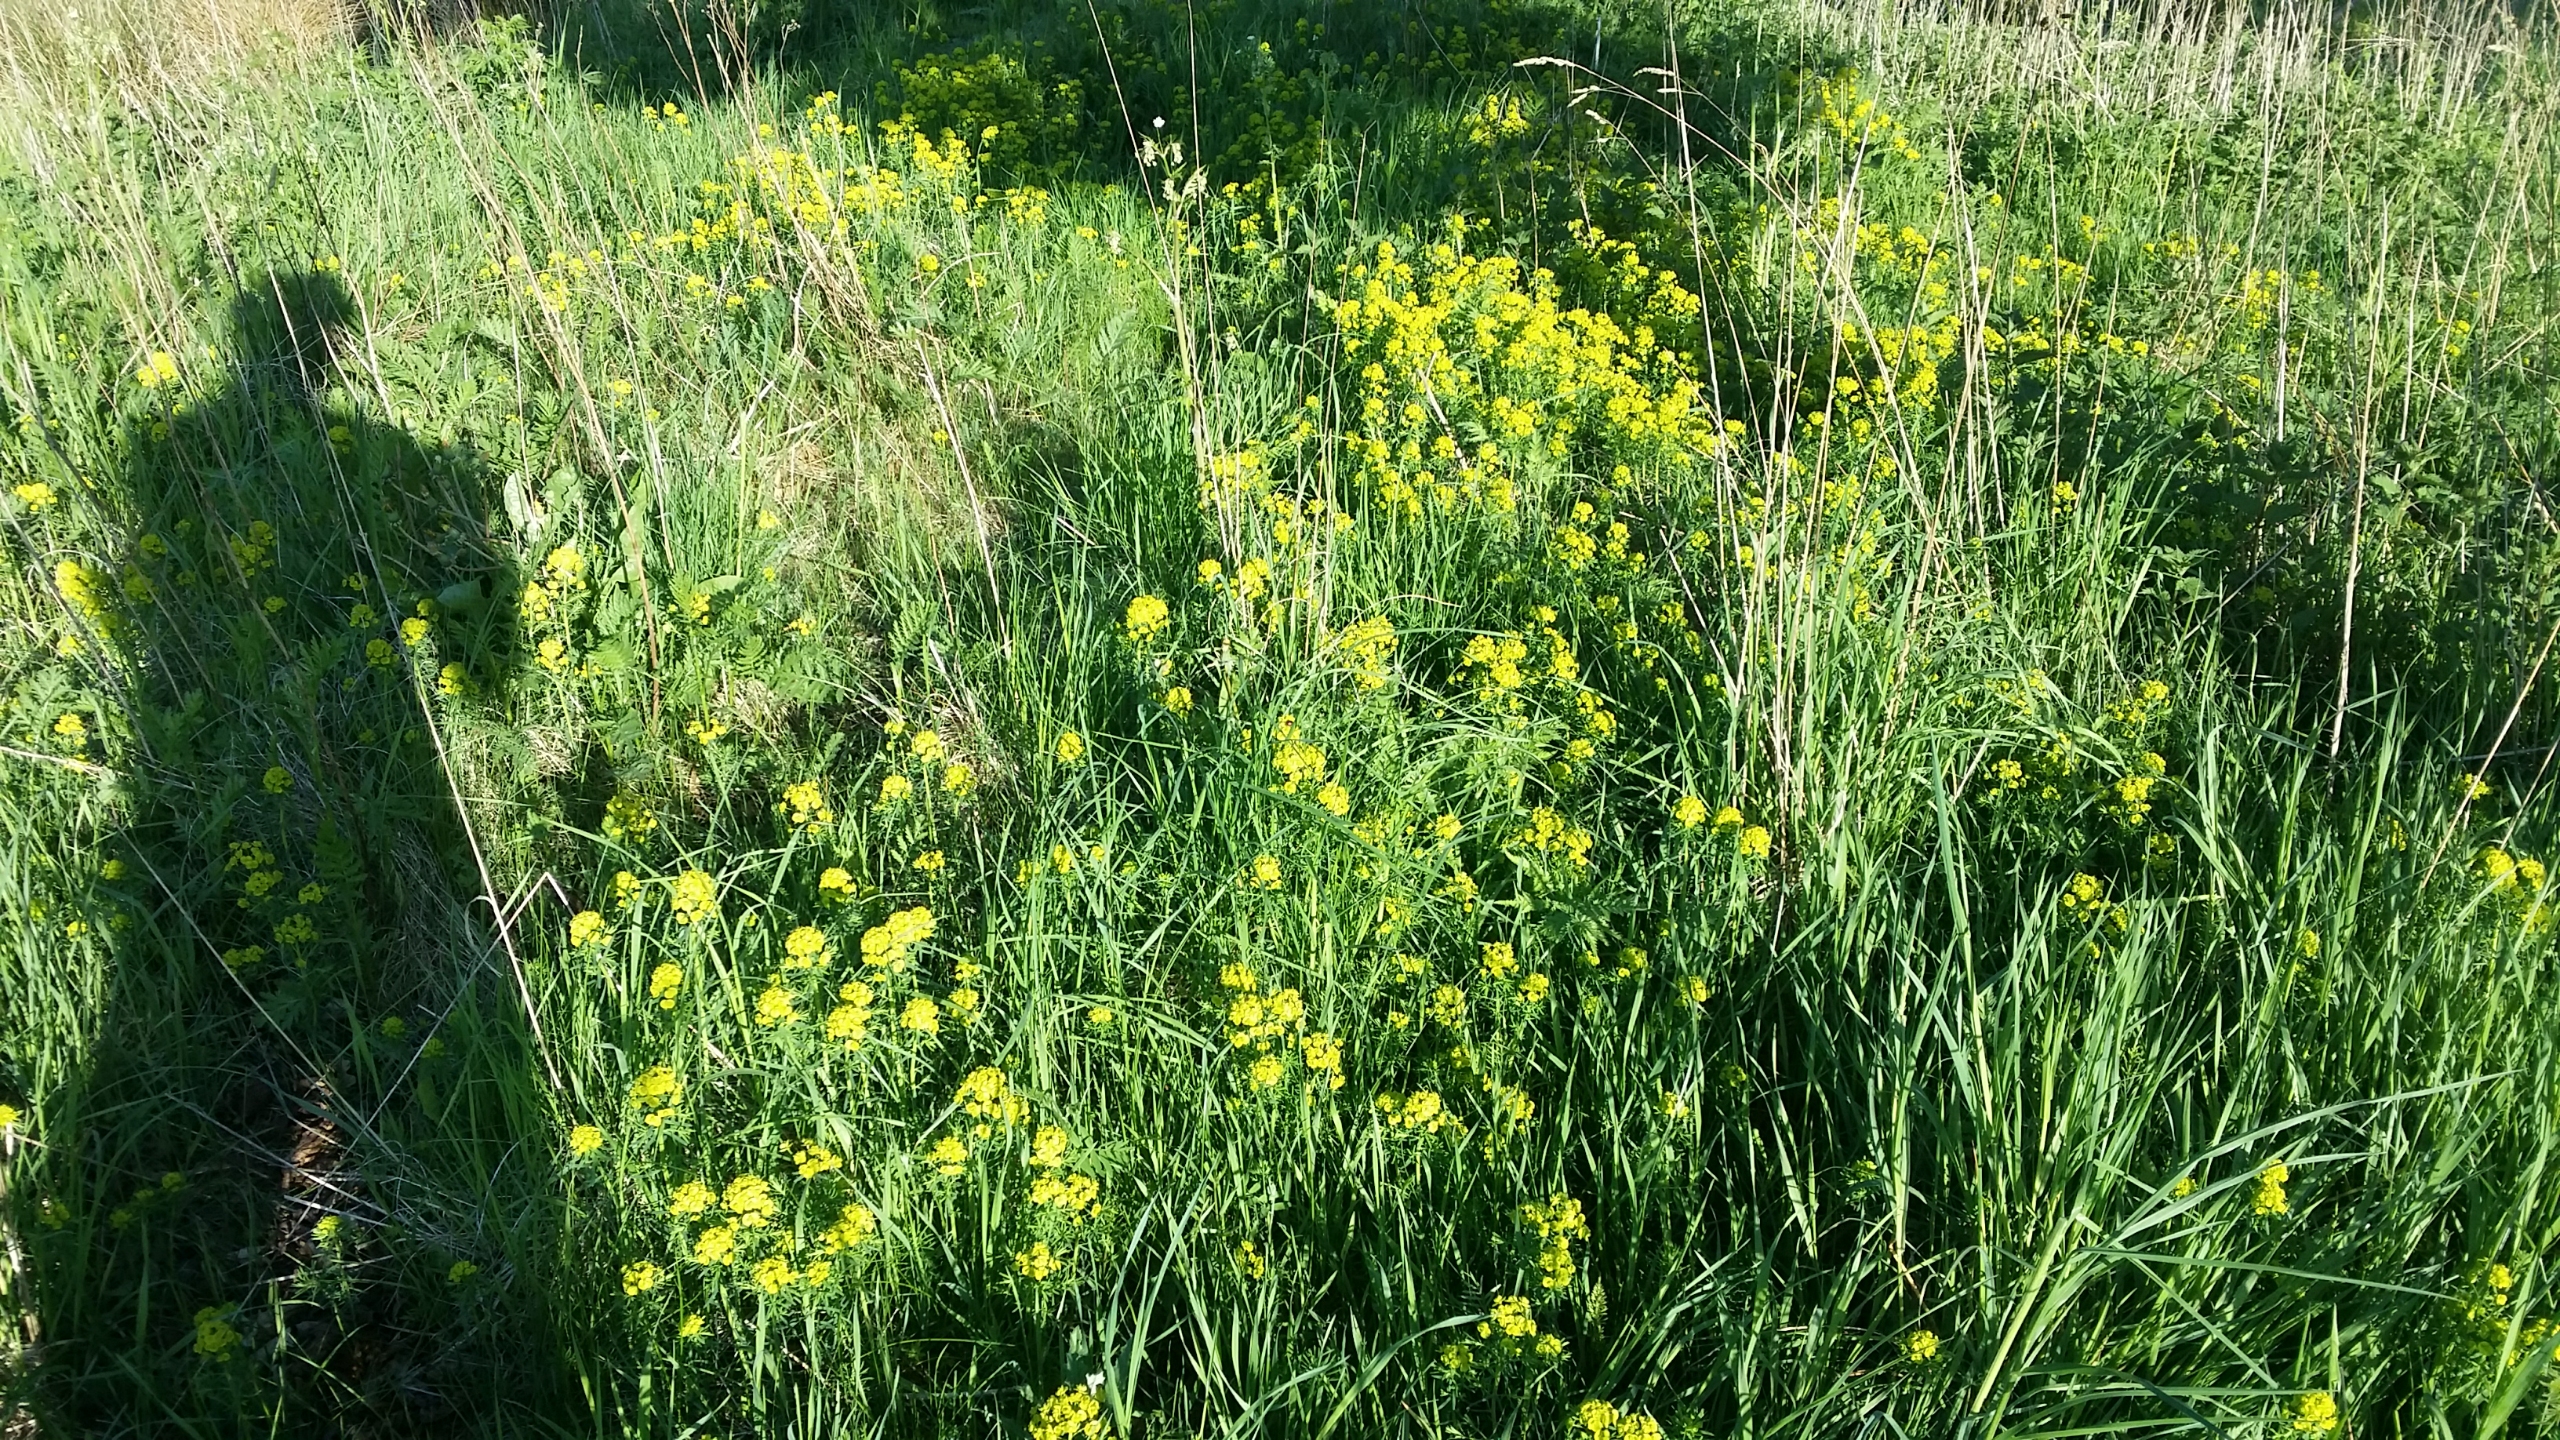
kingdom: Plantae
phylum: Tracheophyta
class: Magnoliopsida
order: Malpighiales
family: Euphorbiaceae
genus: Euphorbia
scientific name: Euphorbia tommasiniana
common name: Ris-vortemælk
